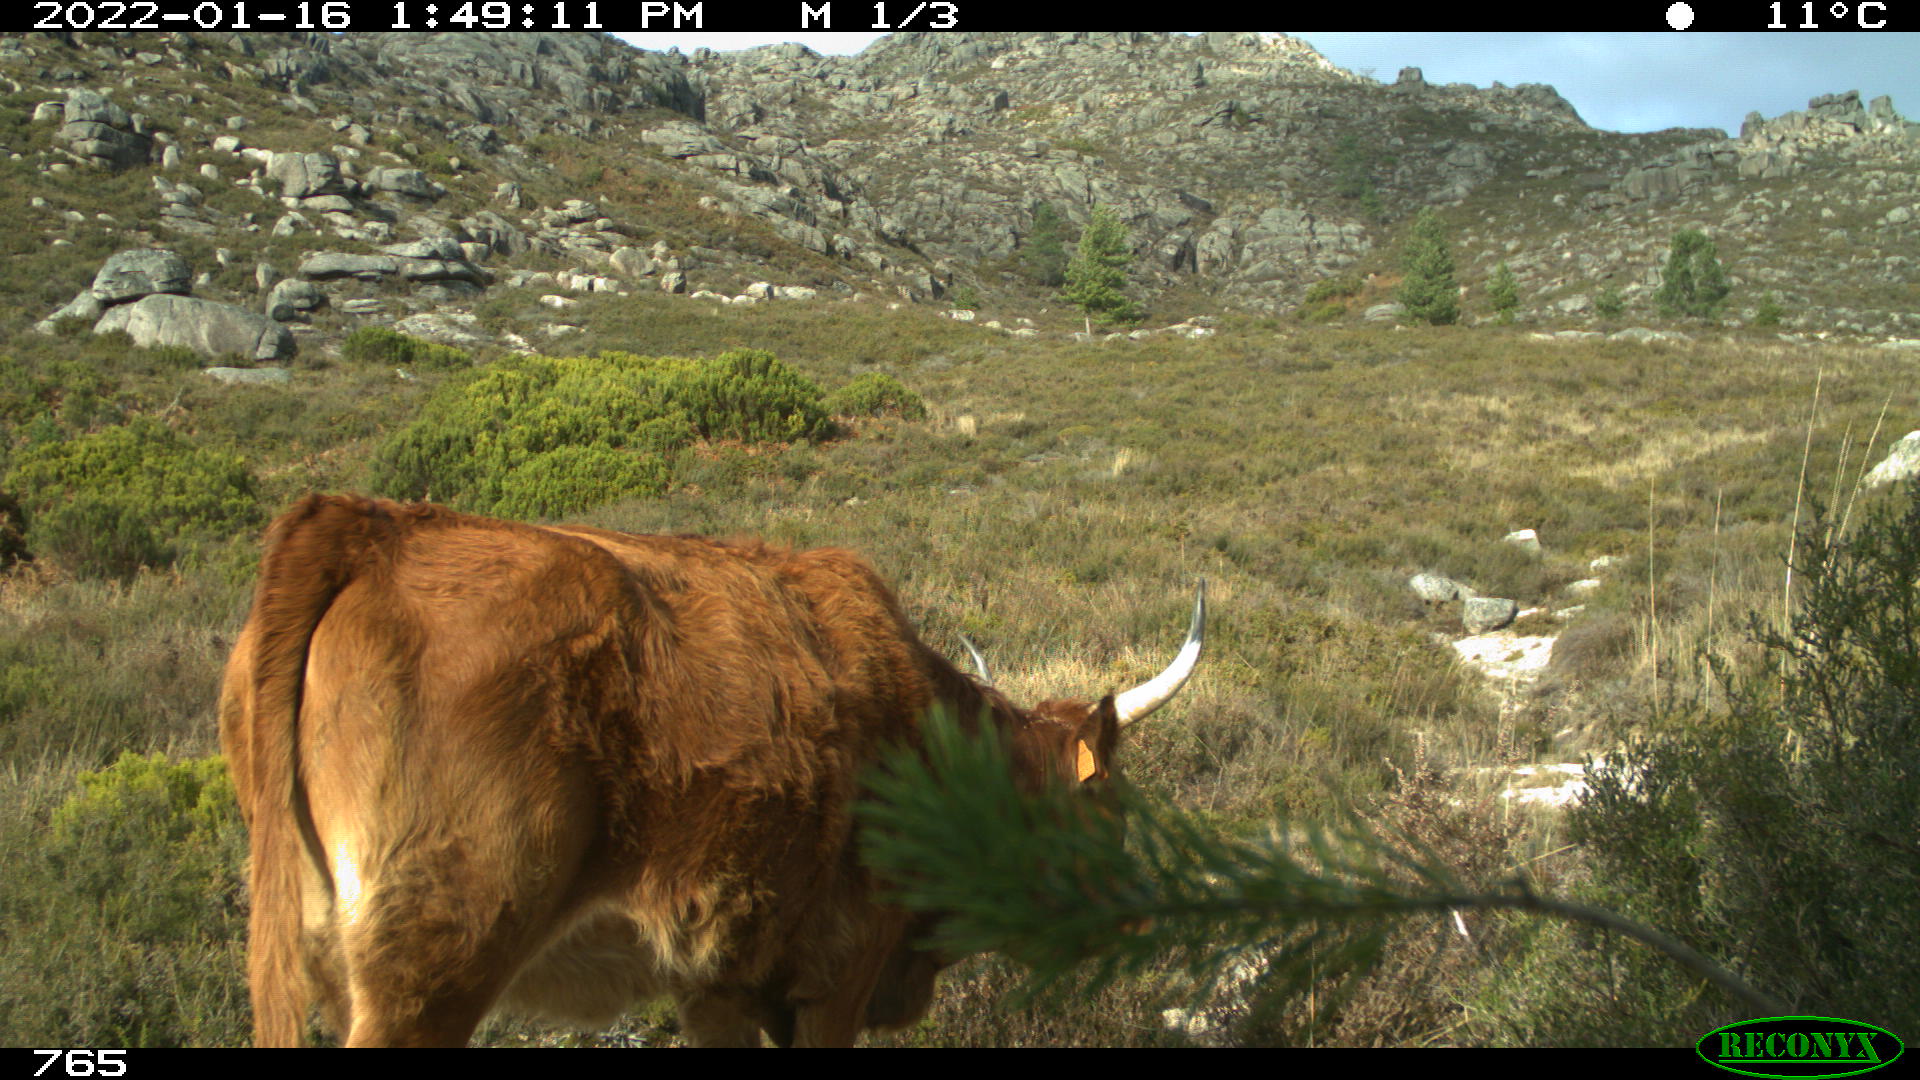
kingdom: Animalia
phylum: Chordata
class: Mammalia
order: Artiodactyla
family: Bovidae
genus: Bos
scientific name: Bos taurus
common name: Domesticated cattle
